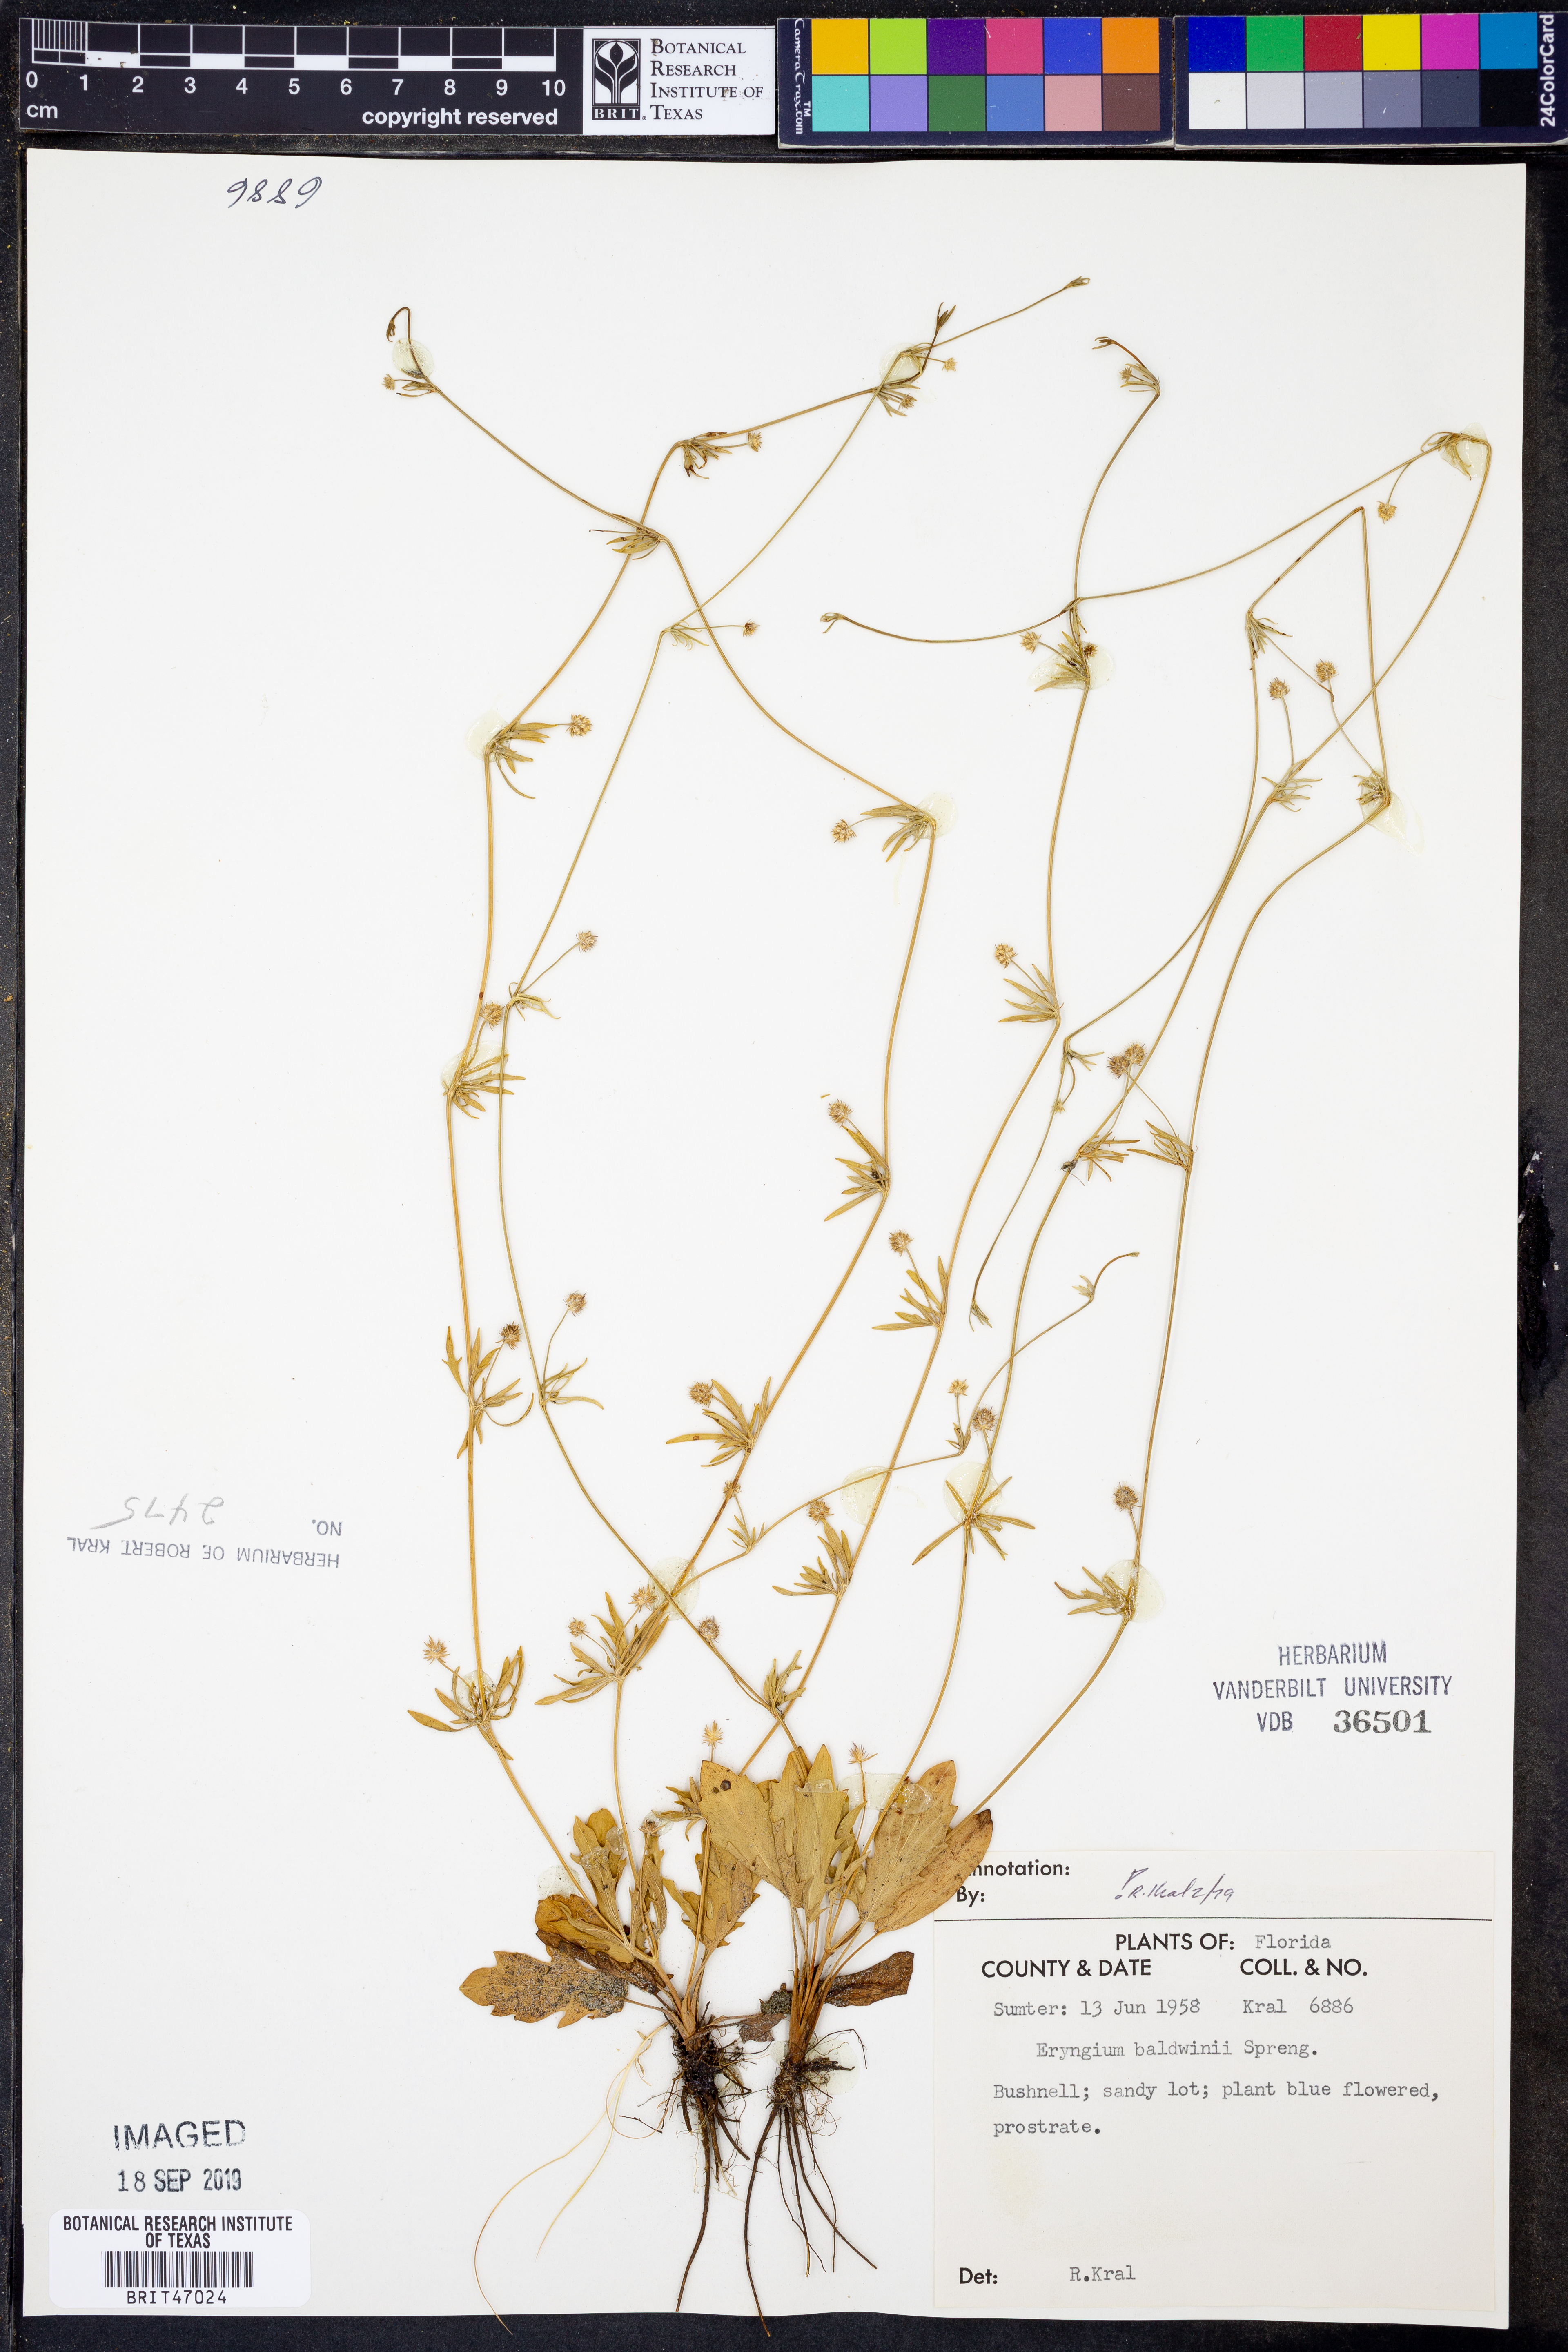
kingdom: Plantae
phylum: Tracheophyta
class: Magnoliopsida
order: Apiales
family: Apiaceae
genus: Eryngium
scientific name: Eryngium baldwinii
